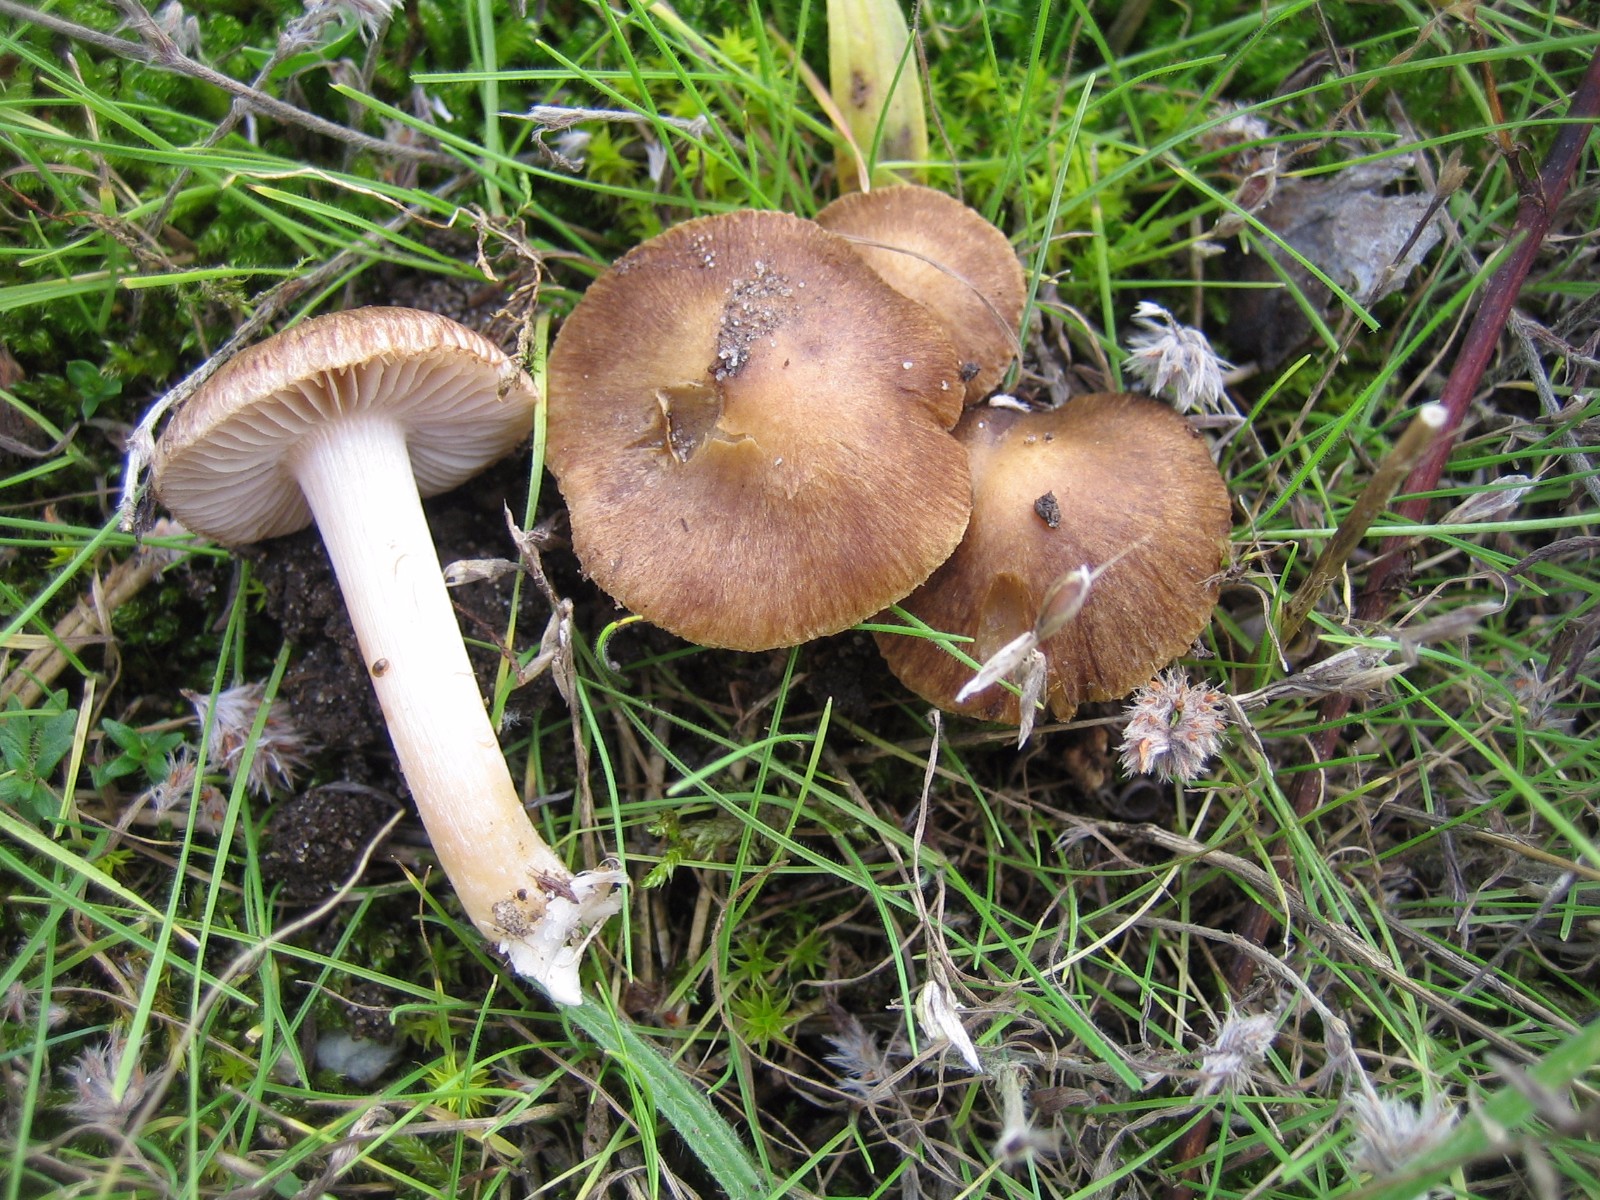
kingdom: Fungi
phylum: Basidiomycota
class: Agaricomycetes
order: Agaricales
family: Inocybaceae
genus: Inocybe
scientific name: Inocybe
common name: trævlhat
